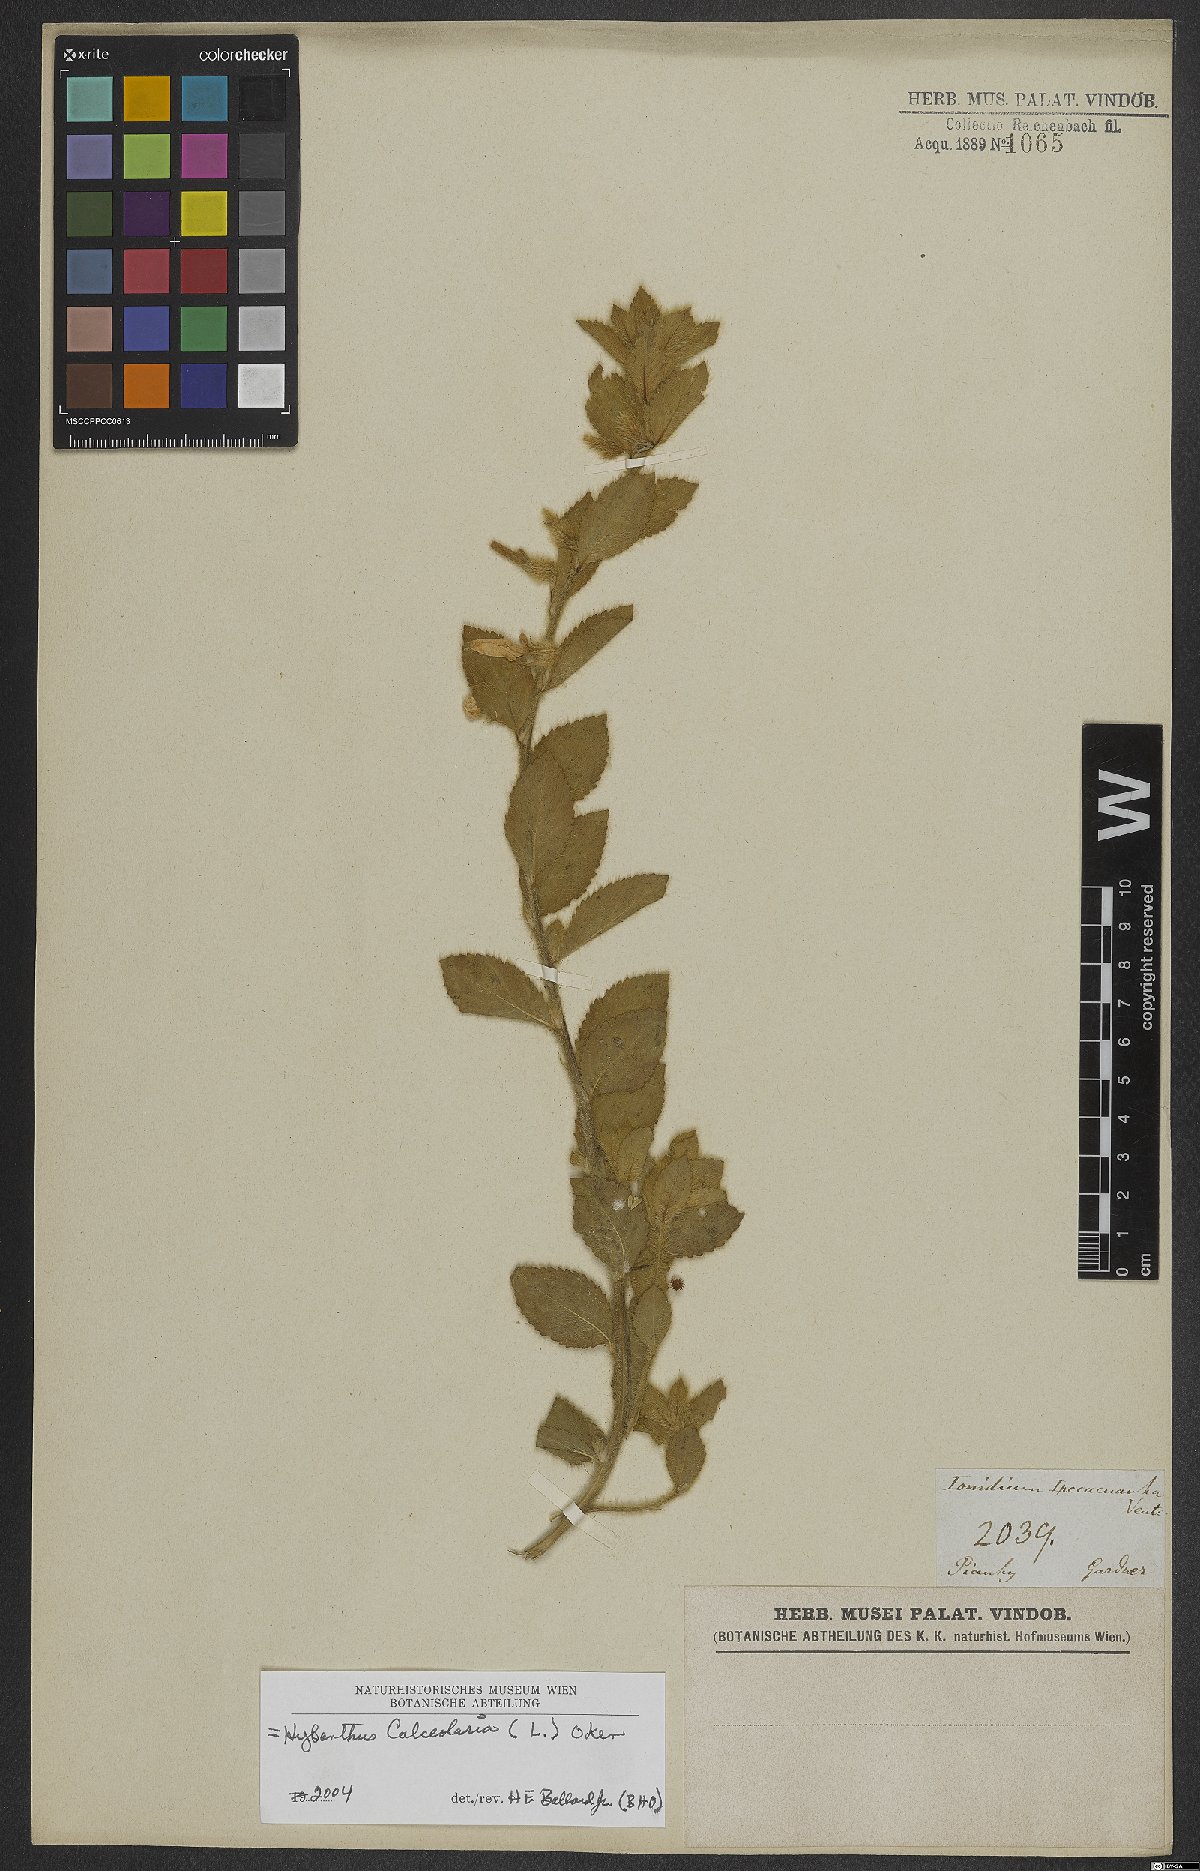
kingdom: Plantae
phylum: Tracheophyta
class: Magnoliopsida
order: Malpighiales
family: Violaceae
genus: Pombalia
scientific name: Pombalia calceolaria
